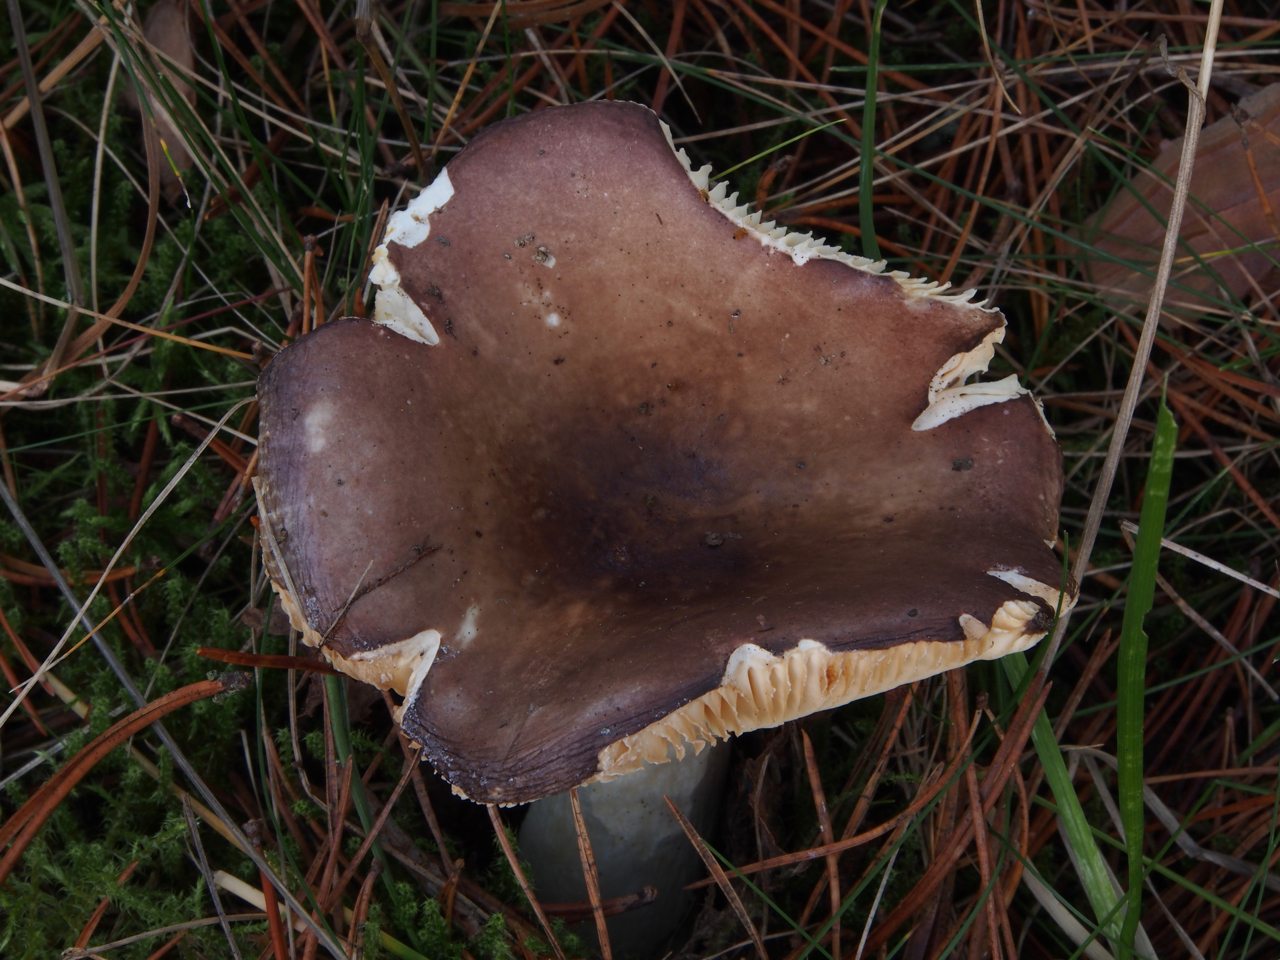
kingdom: Fungi
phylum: Basidiomycota
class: Agaricomycetes
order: Russulales
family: Russulaceae
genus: Russula
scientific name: Russula firmula
